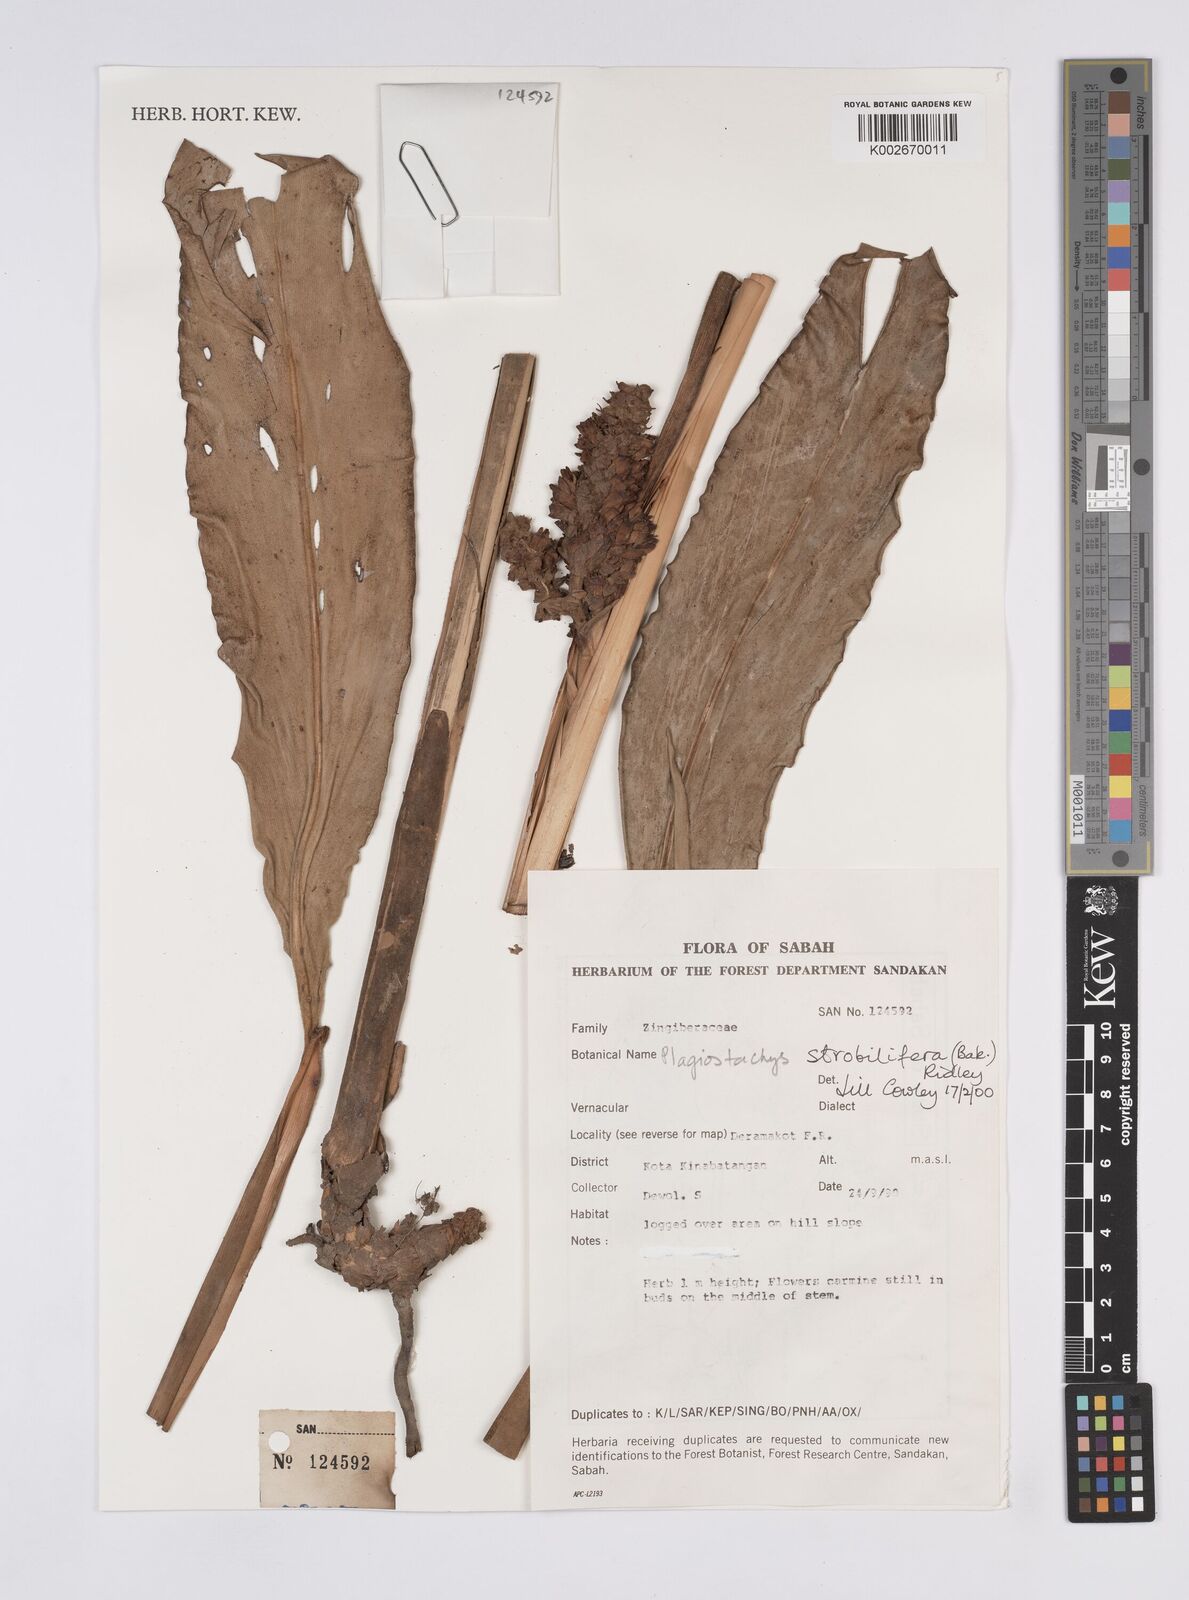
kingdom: Plantae
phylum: Tracheophyta
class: Liliopsida
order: Zingiberales
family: Zingiberaceae
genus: Plagiostachys
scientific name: Plagiostachys strobilifera
